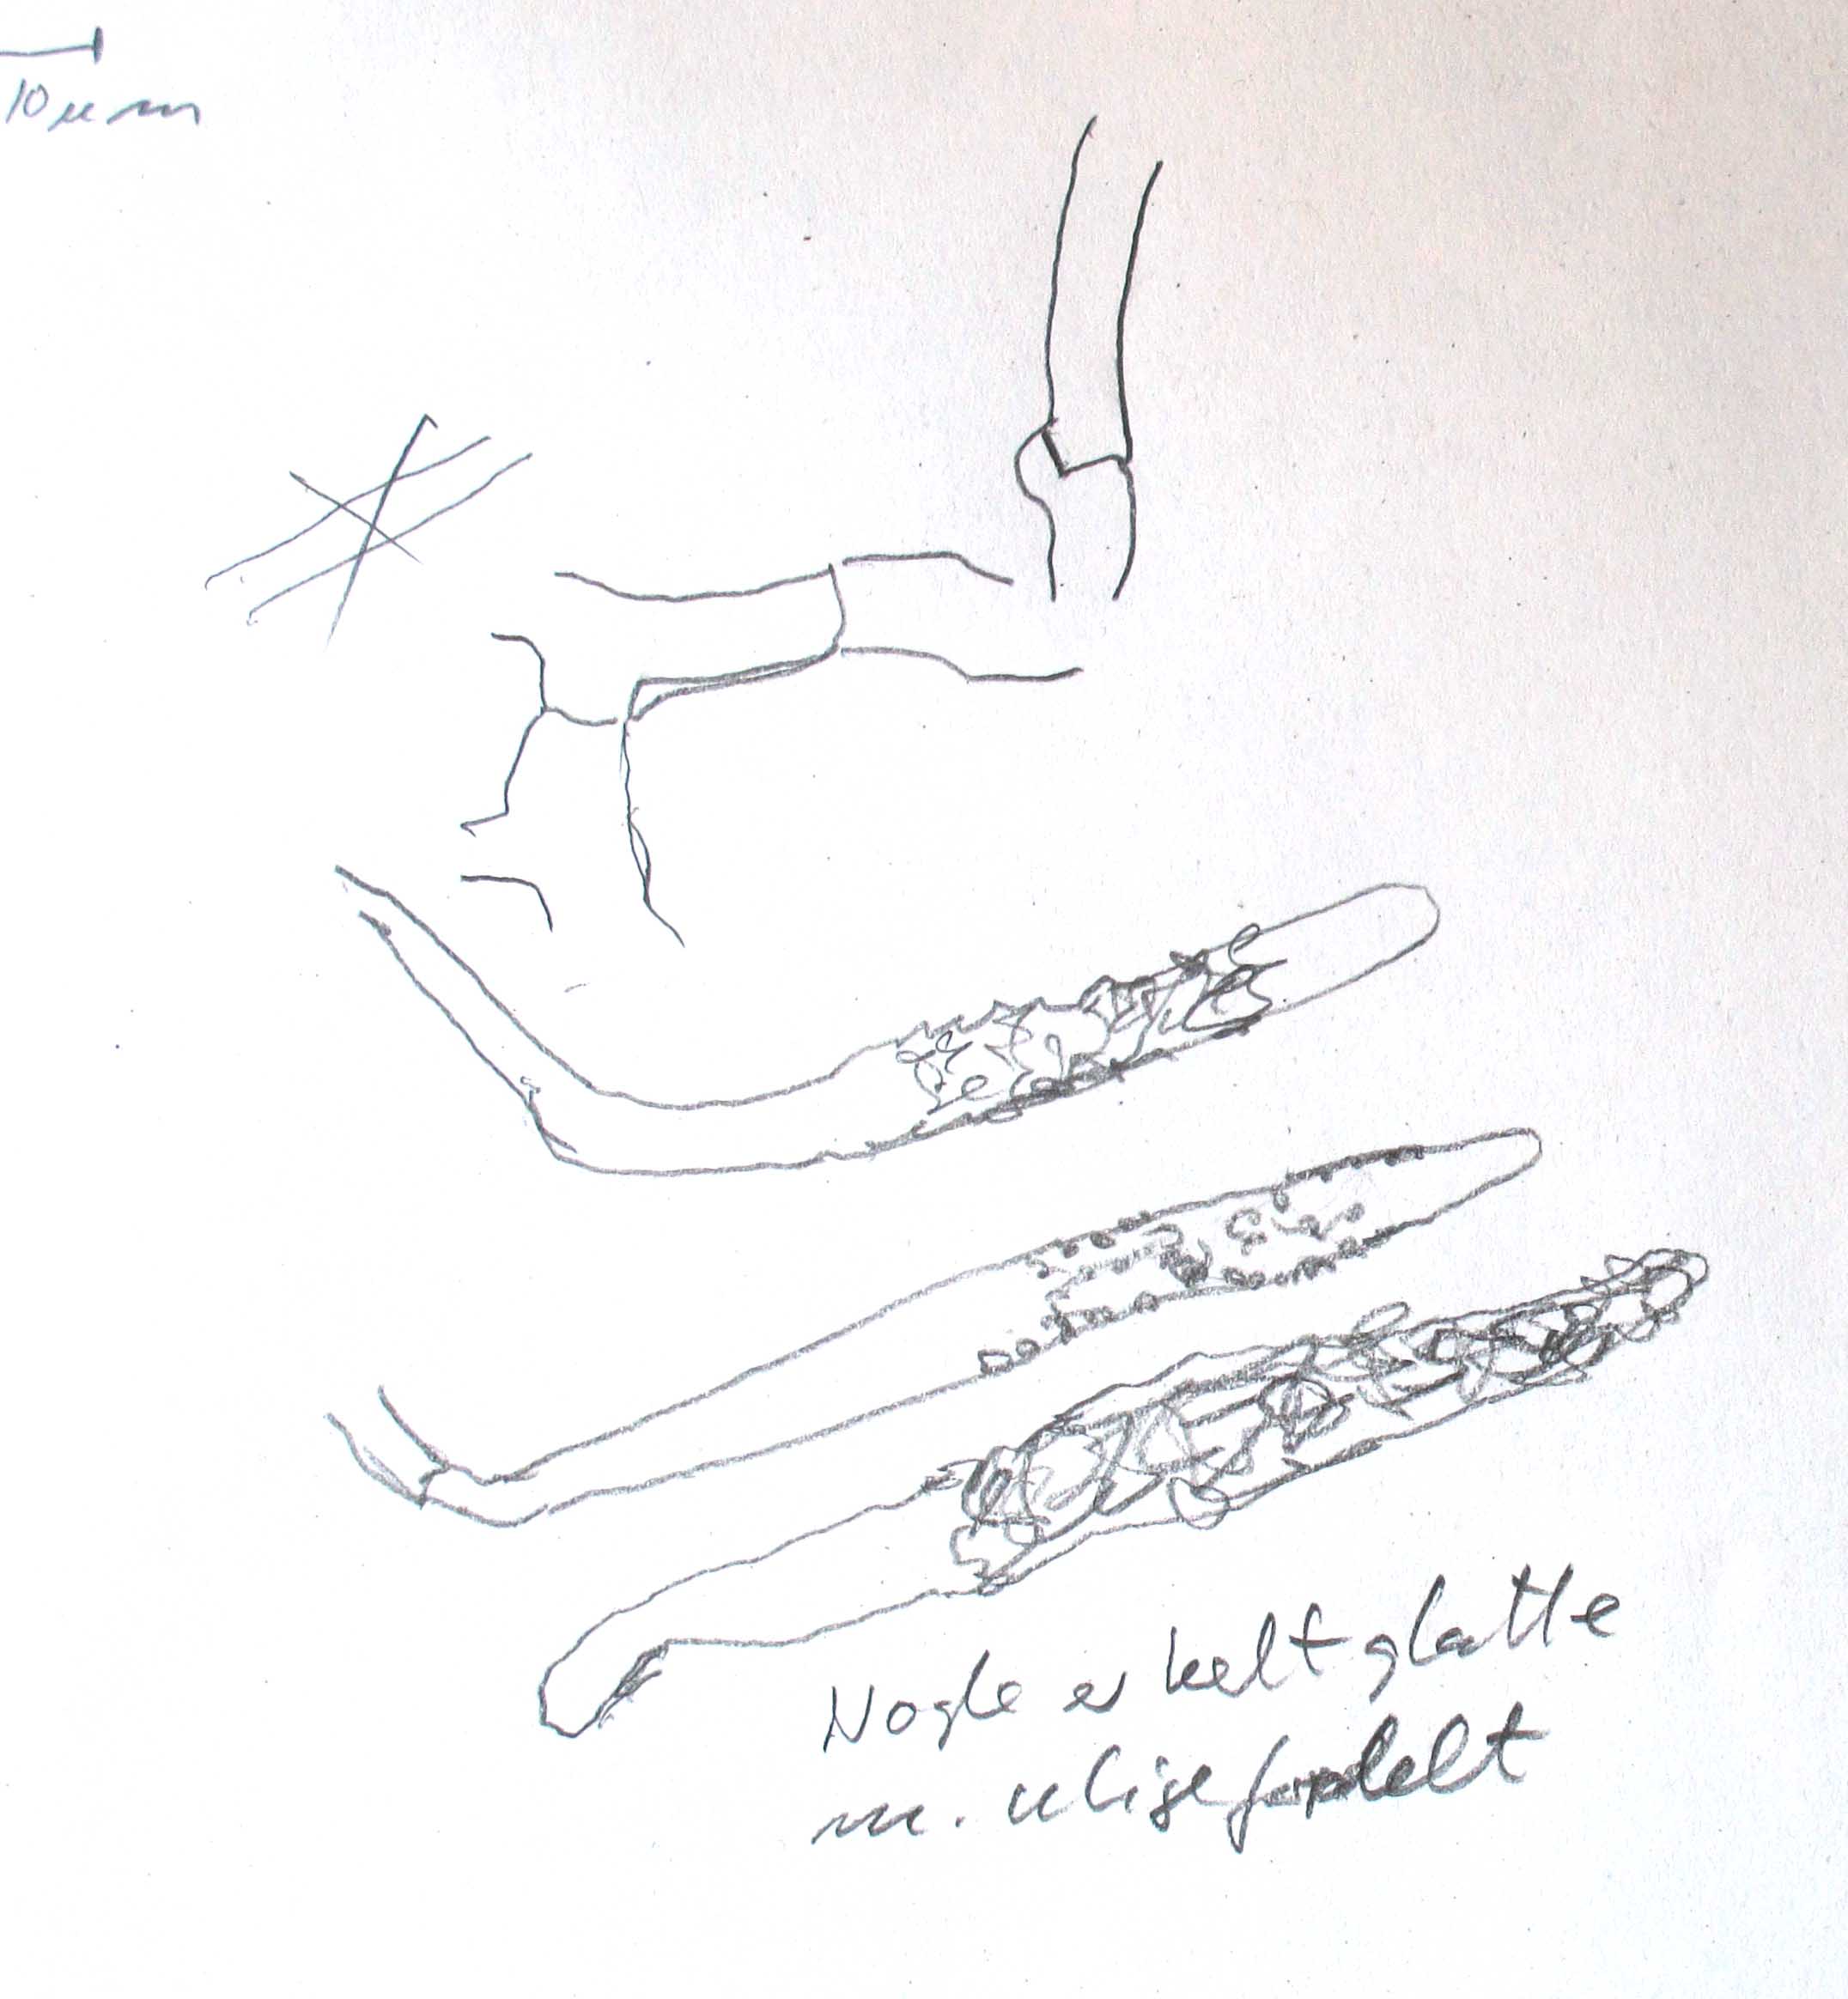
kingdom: Fungi
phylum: Basidiomycota
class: Agaricomycetes
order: Polyporales
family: Phanerochaetaceae
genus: Atheliachaete
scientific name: Atheliachaete sanguinea
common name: rødmende randtråd
